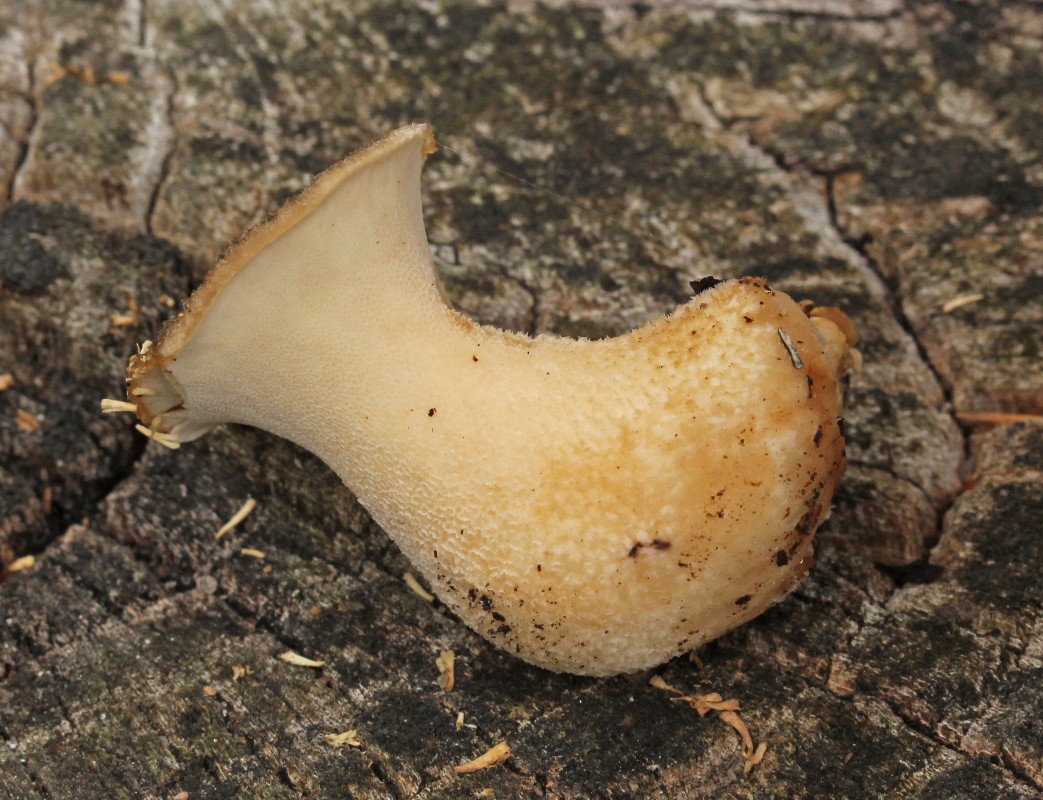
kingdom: Fungi
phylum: Basidiomycota
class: Agaricomycetes
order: Polyporales
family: Polyporaceae
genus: Polyporus
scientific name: Polyporus tuberaster
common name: knoldet stilkporesvamp
